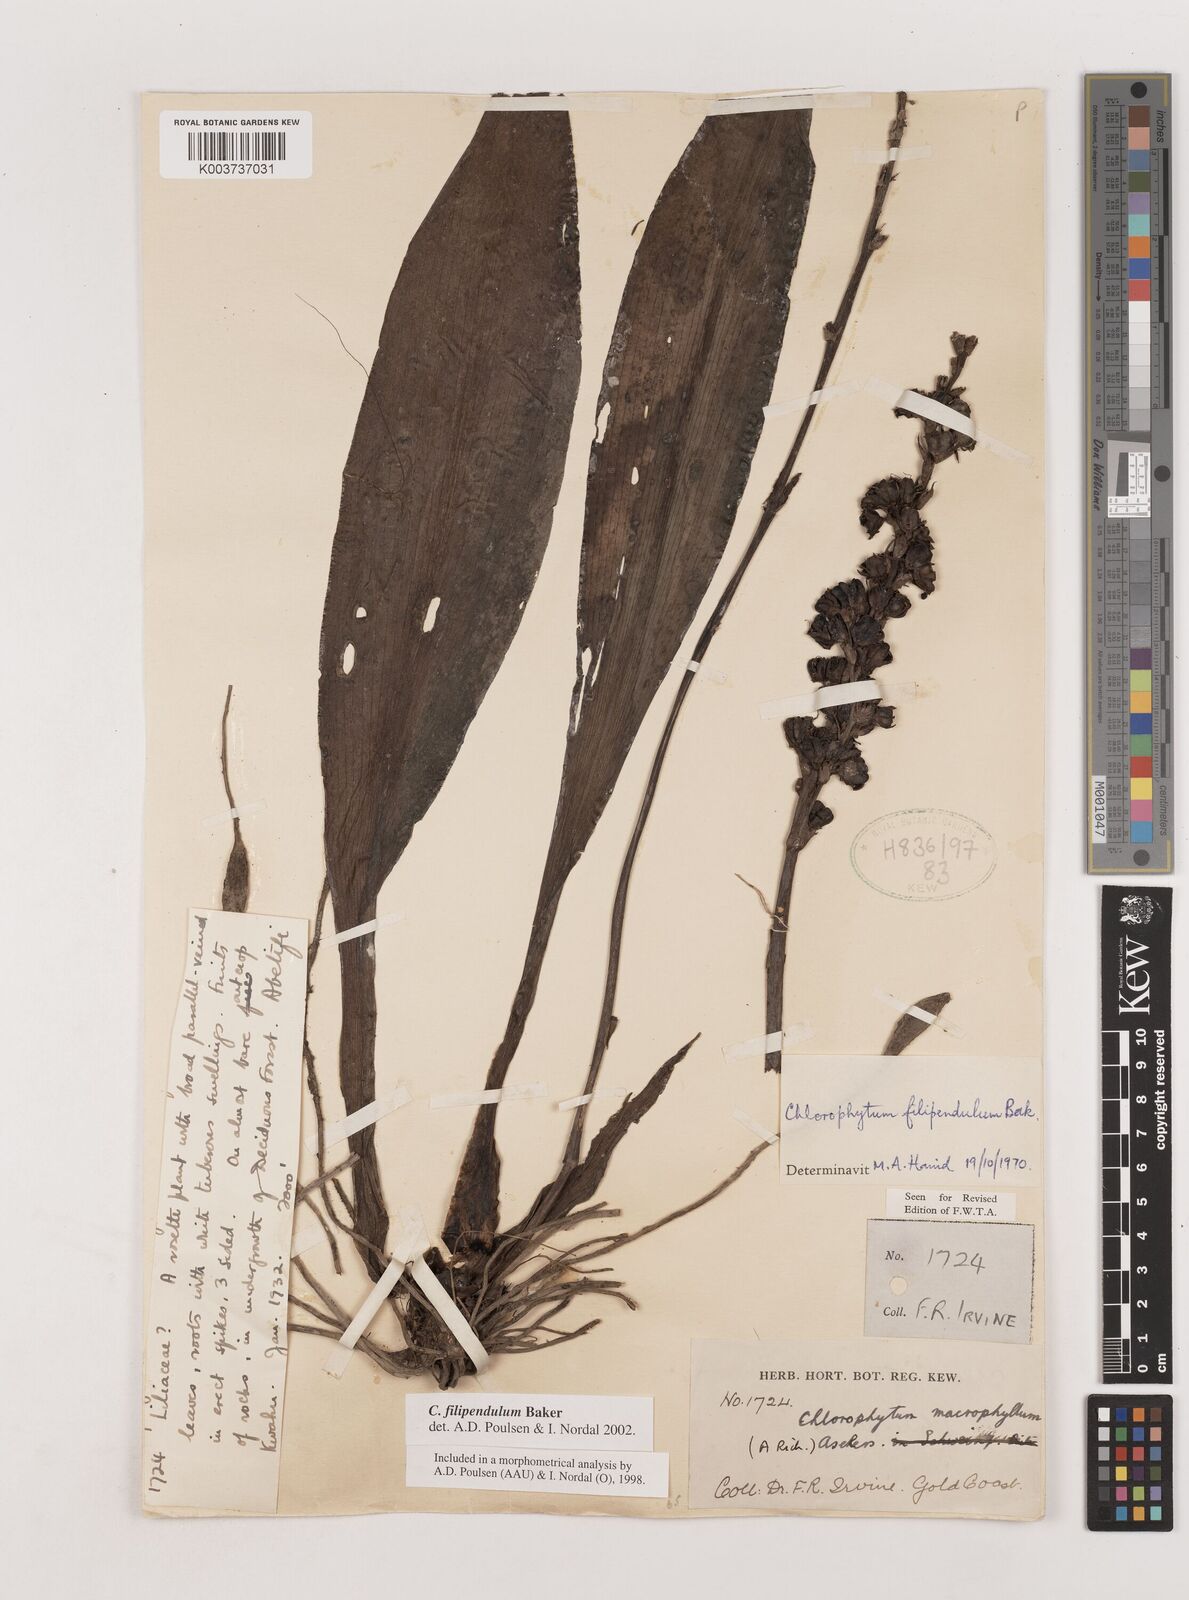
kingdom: Plantae
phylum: Tracheophyta
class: Liliopsida
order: Asparagales
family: Asparagaceae
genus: Chlorophytum
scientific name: Chlorophytum heynei
